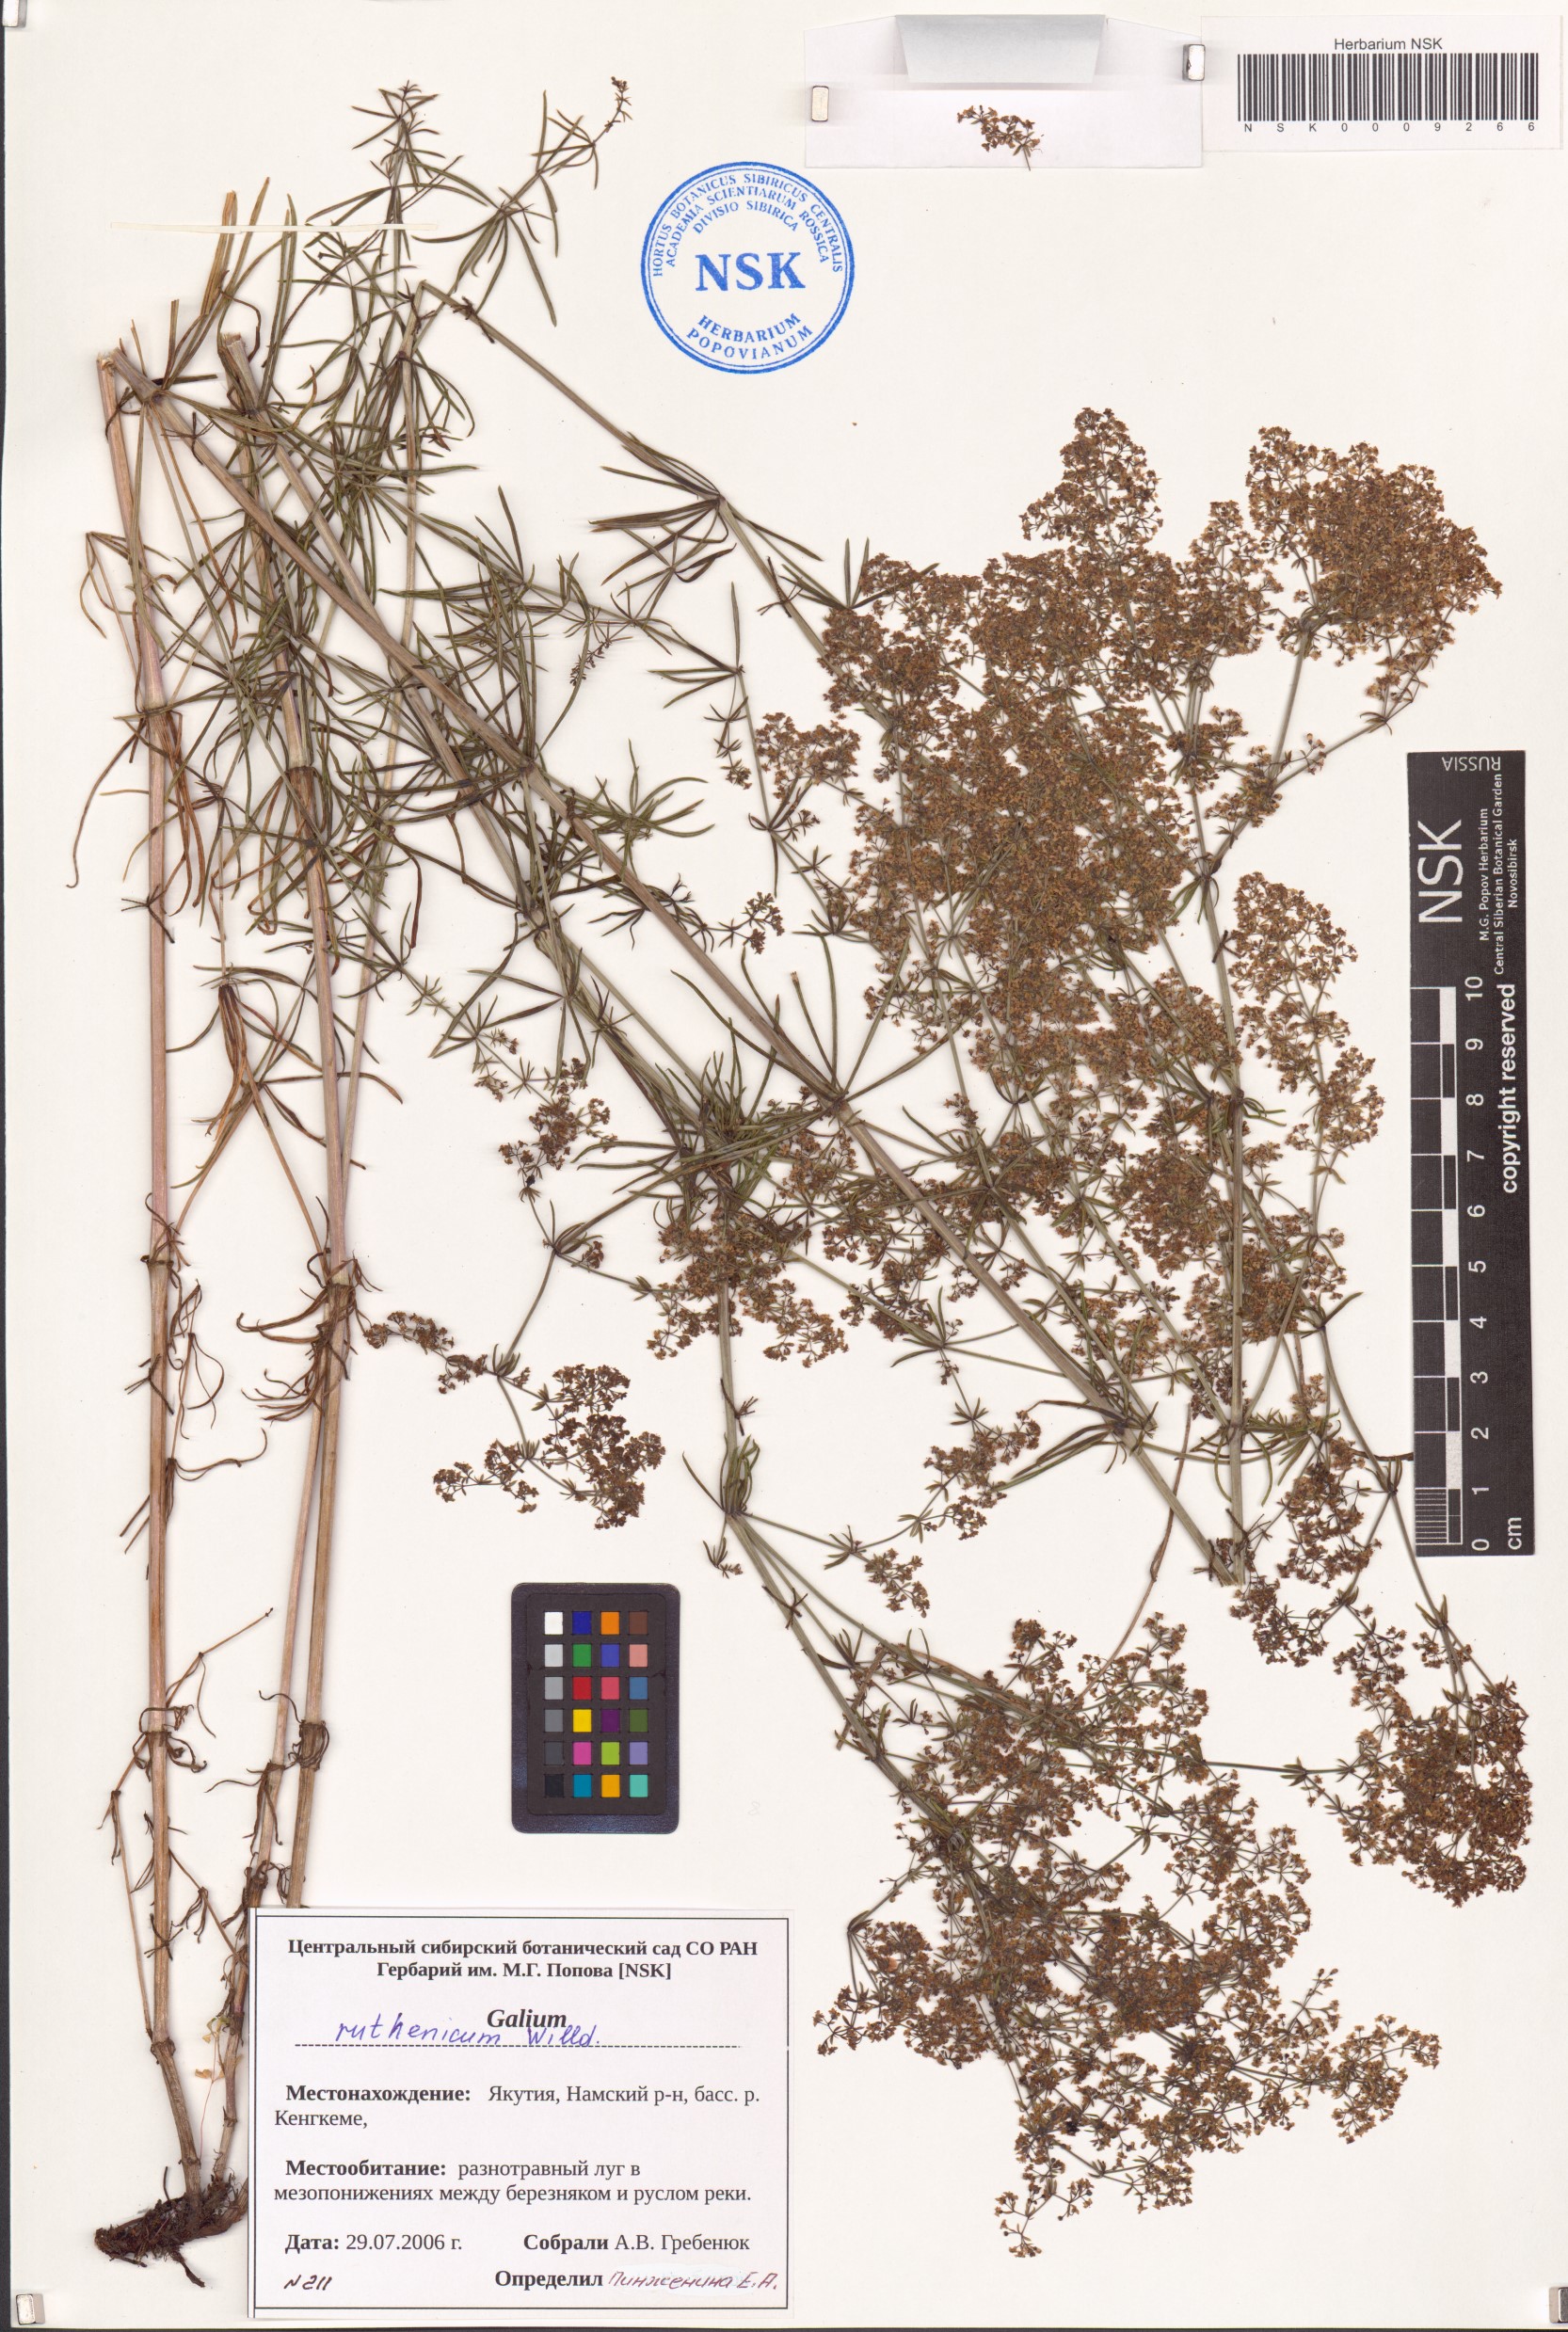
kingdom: Plantae
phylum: Tracheophyta
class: Magnoliopsida
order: Gentianales
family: Rubiaceae
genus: Galium
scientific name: Galium verum
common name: Lady's bedstraw
